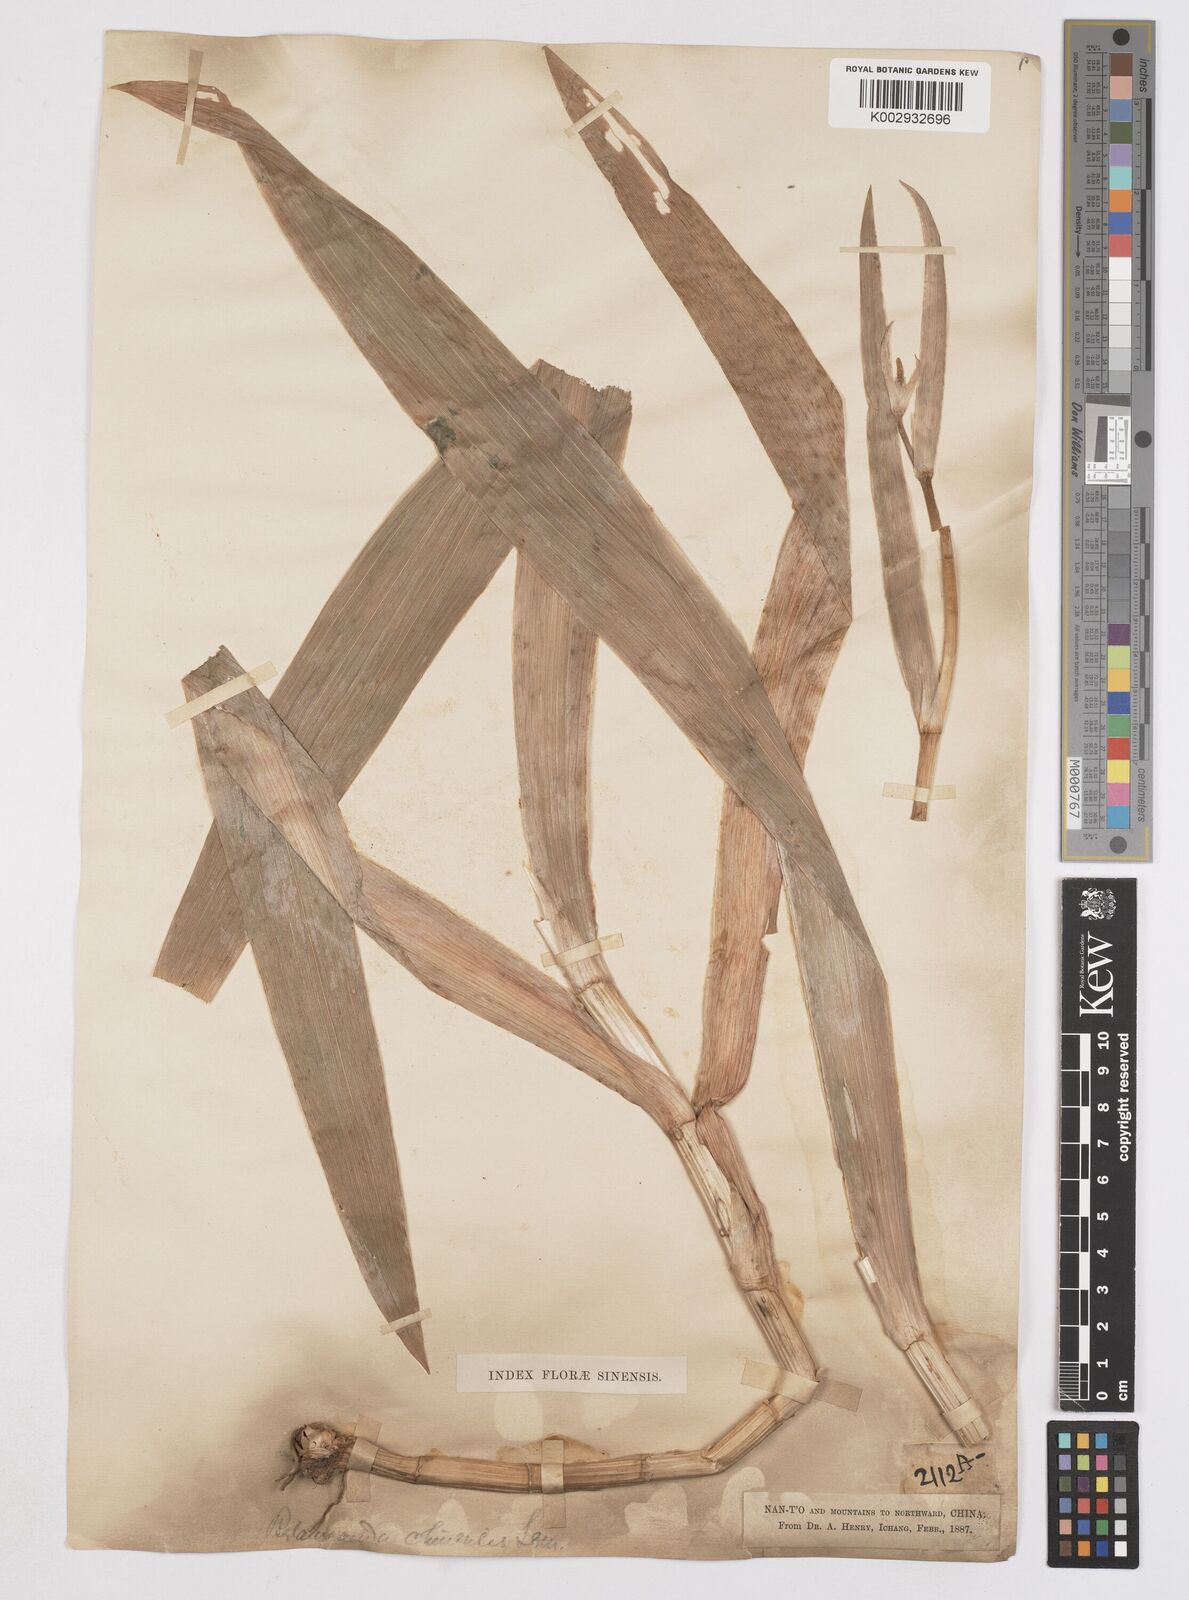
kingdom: Plantae
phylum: Tracheophyta
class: Liliopsida
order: Asparagales
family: Iridaceae
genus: Iris
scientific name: Iris
